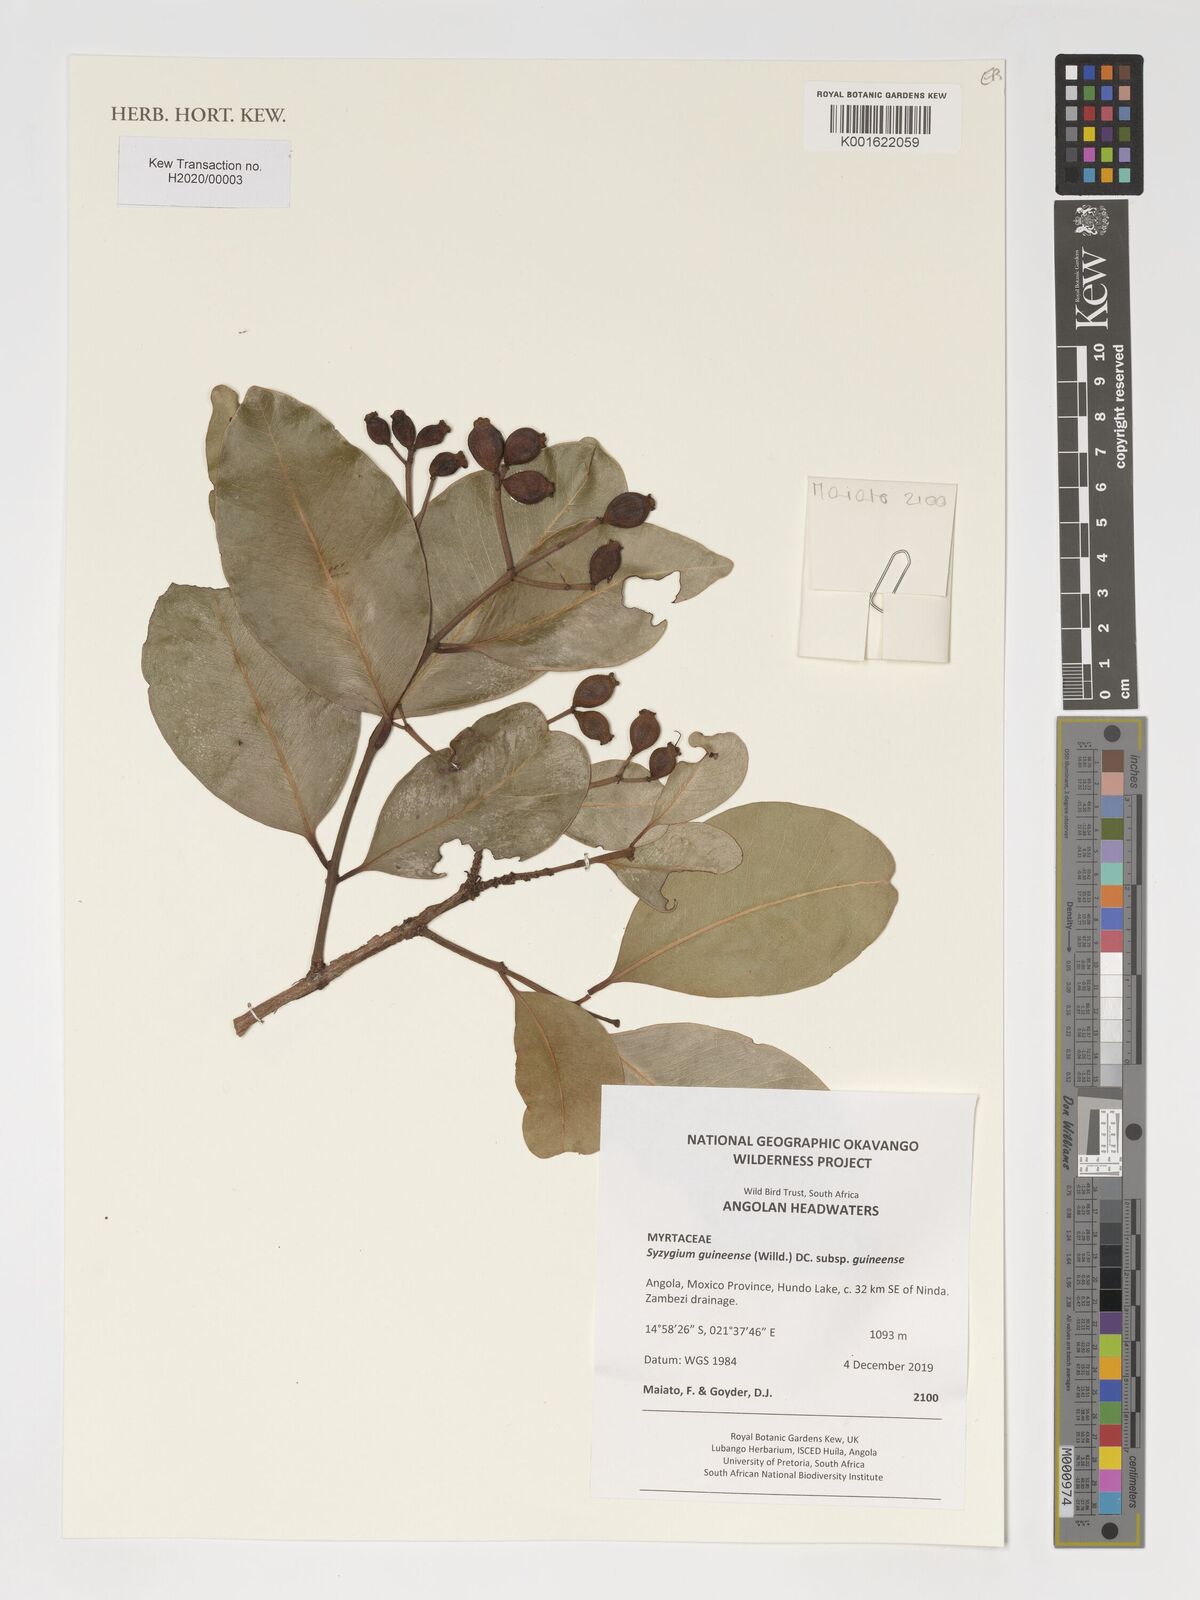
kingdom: Plantae
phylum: Tracheophyta
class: Magnoliopsida
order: Myrtales
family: Myrtaceae
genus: Syzygium
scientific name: Syzygium guineense
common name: Water-pear
